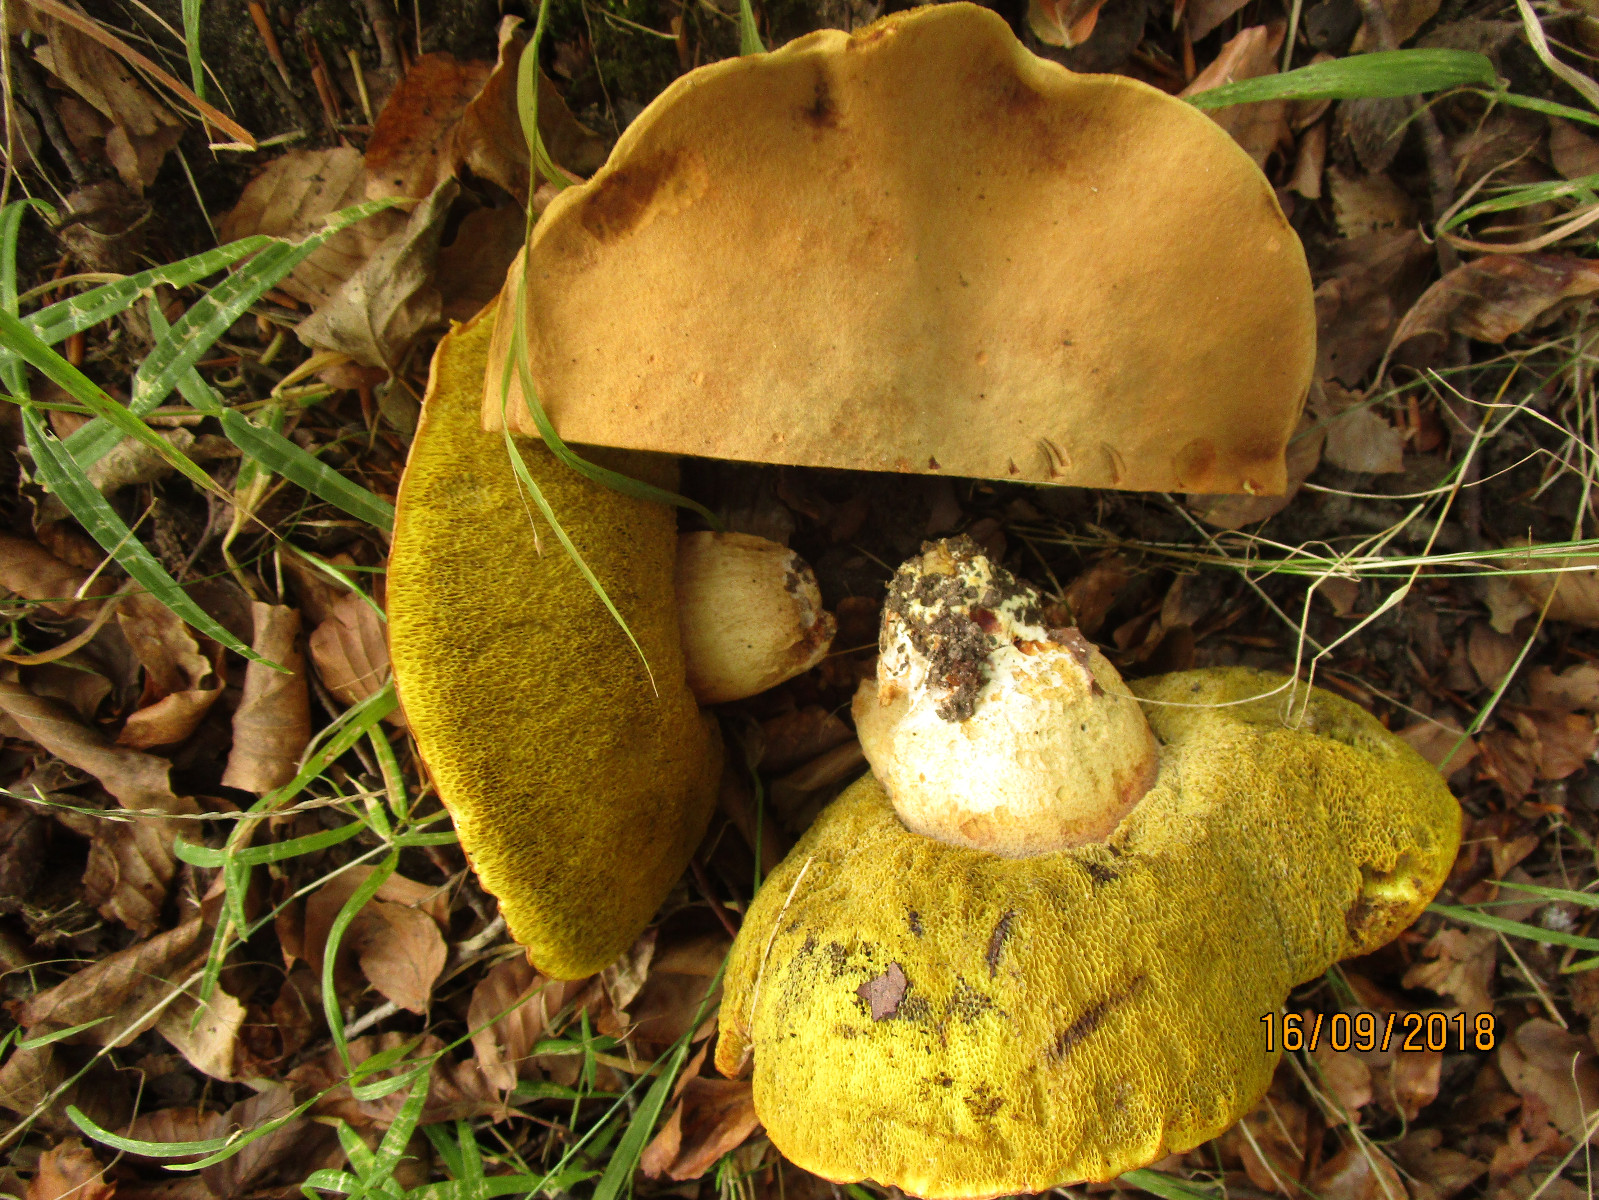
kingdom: Fungi
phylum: Basidiomycota
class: Agaricomycetes
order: Boletales
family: Boletaceae
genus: Hemileccinum
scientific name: Hemileccinum impolitum
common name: bleg rørhat
